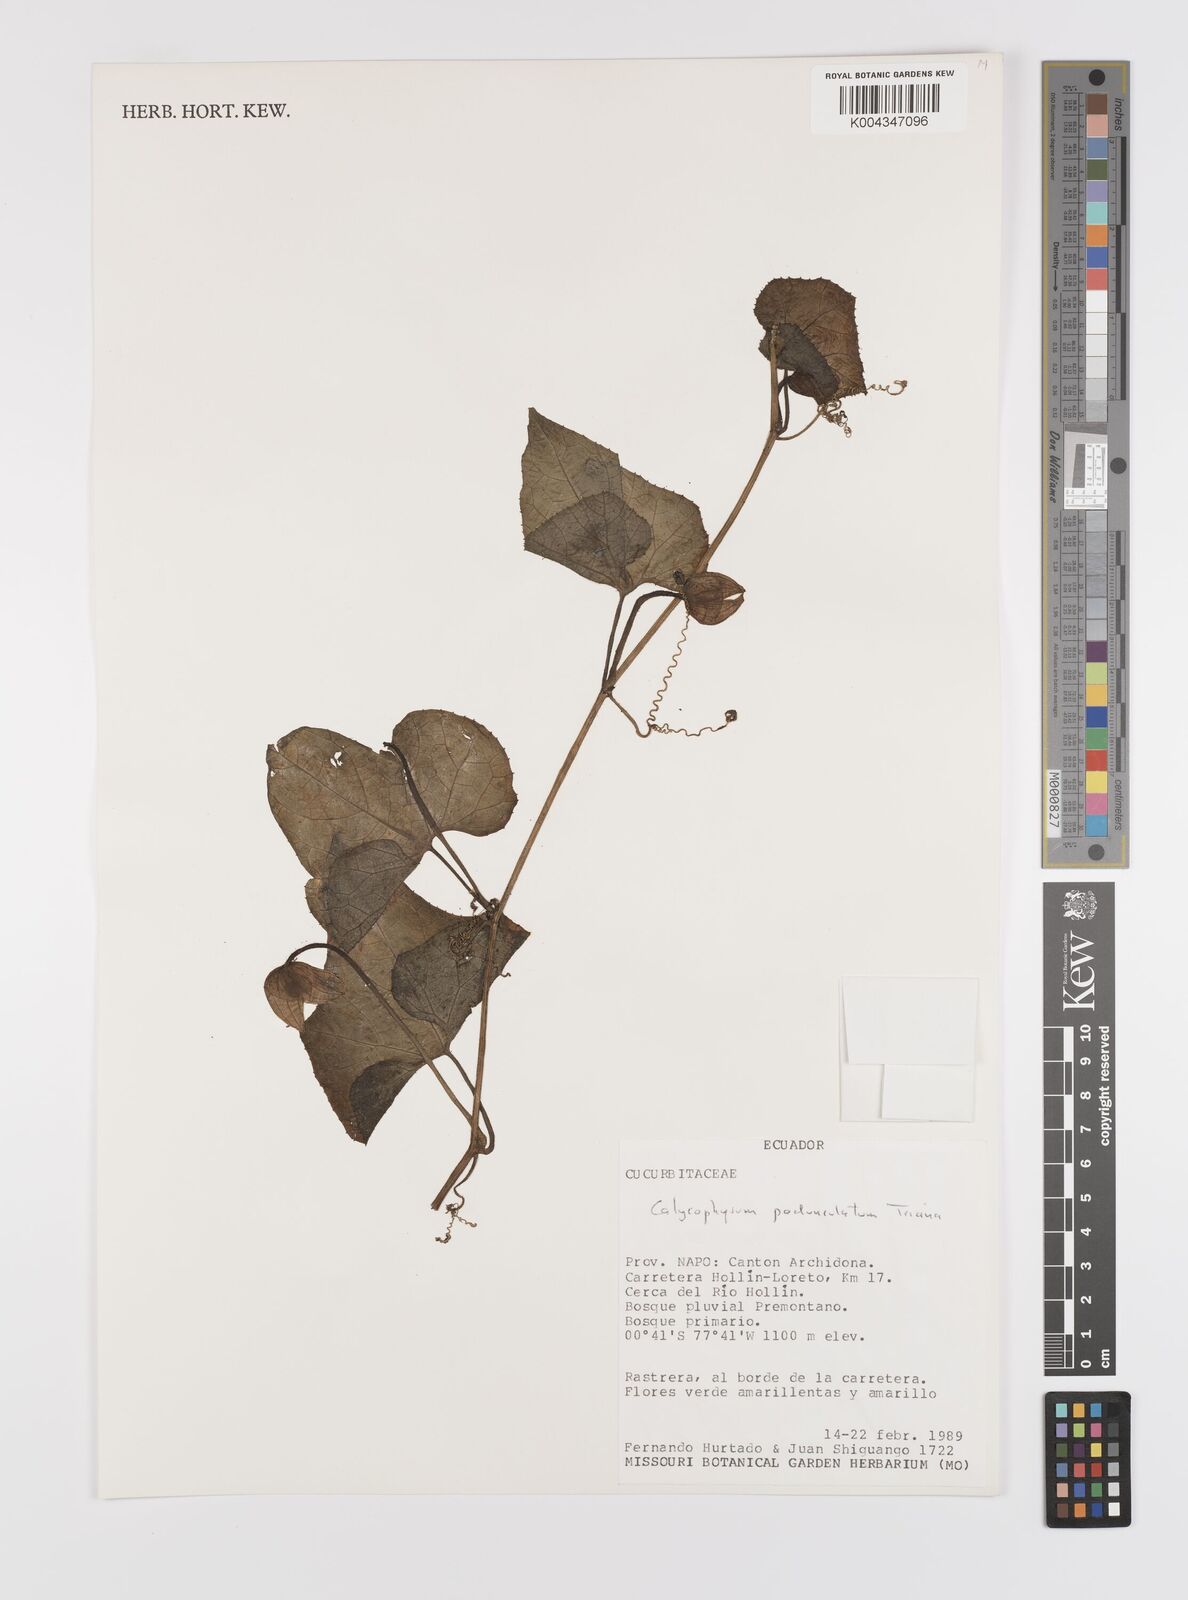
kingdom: Plantae
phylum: Tracheophyta
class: Magnoliopsida
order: Cucurbitales
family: Cucurbitaceae
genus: Calycophysum
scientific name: Calycophysum pedunculatum
